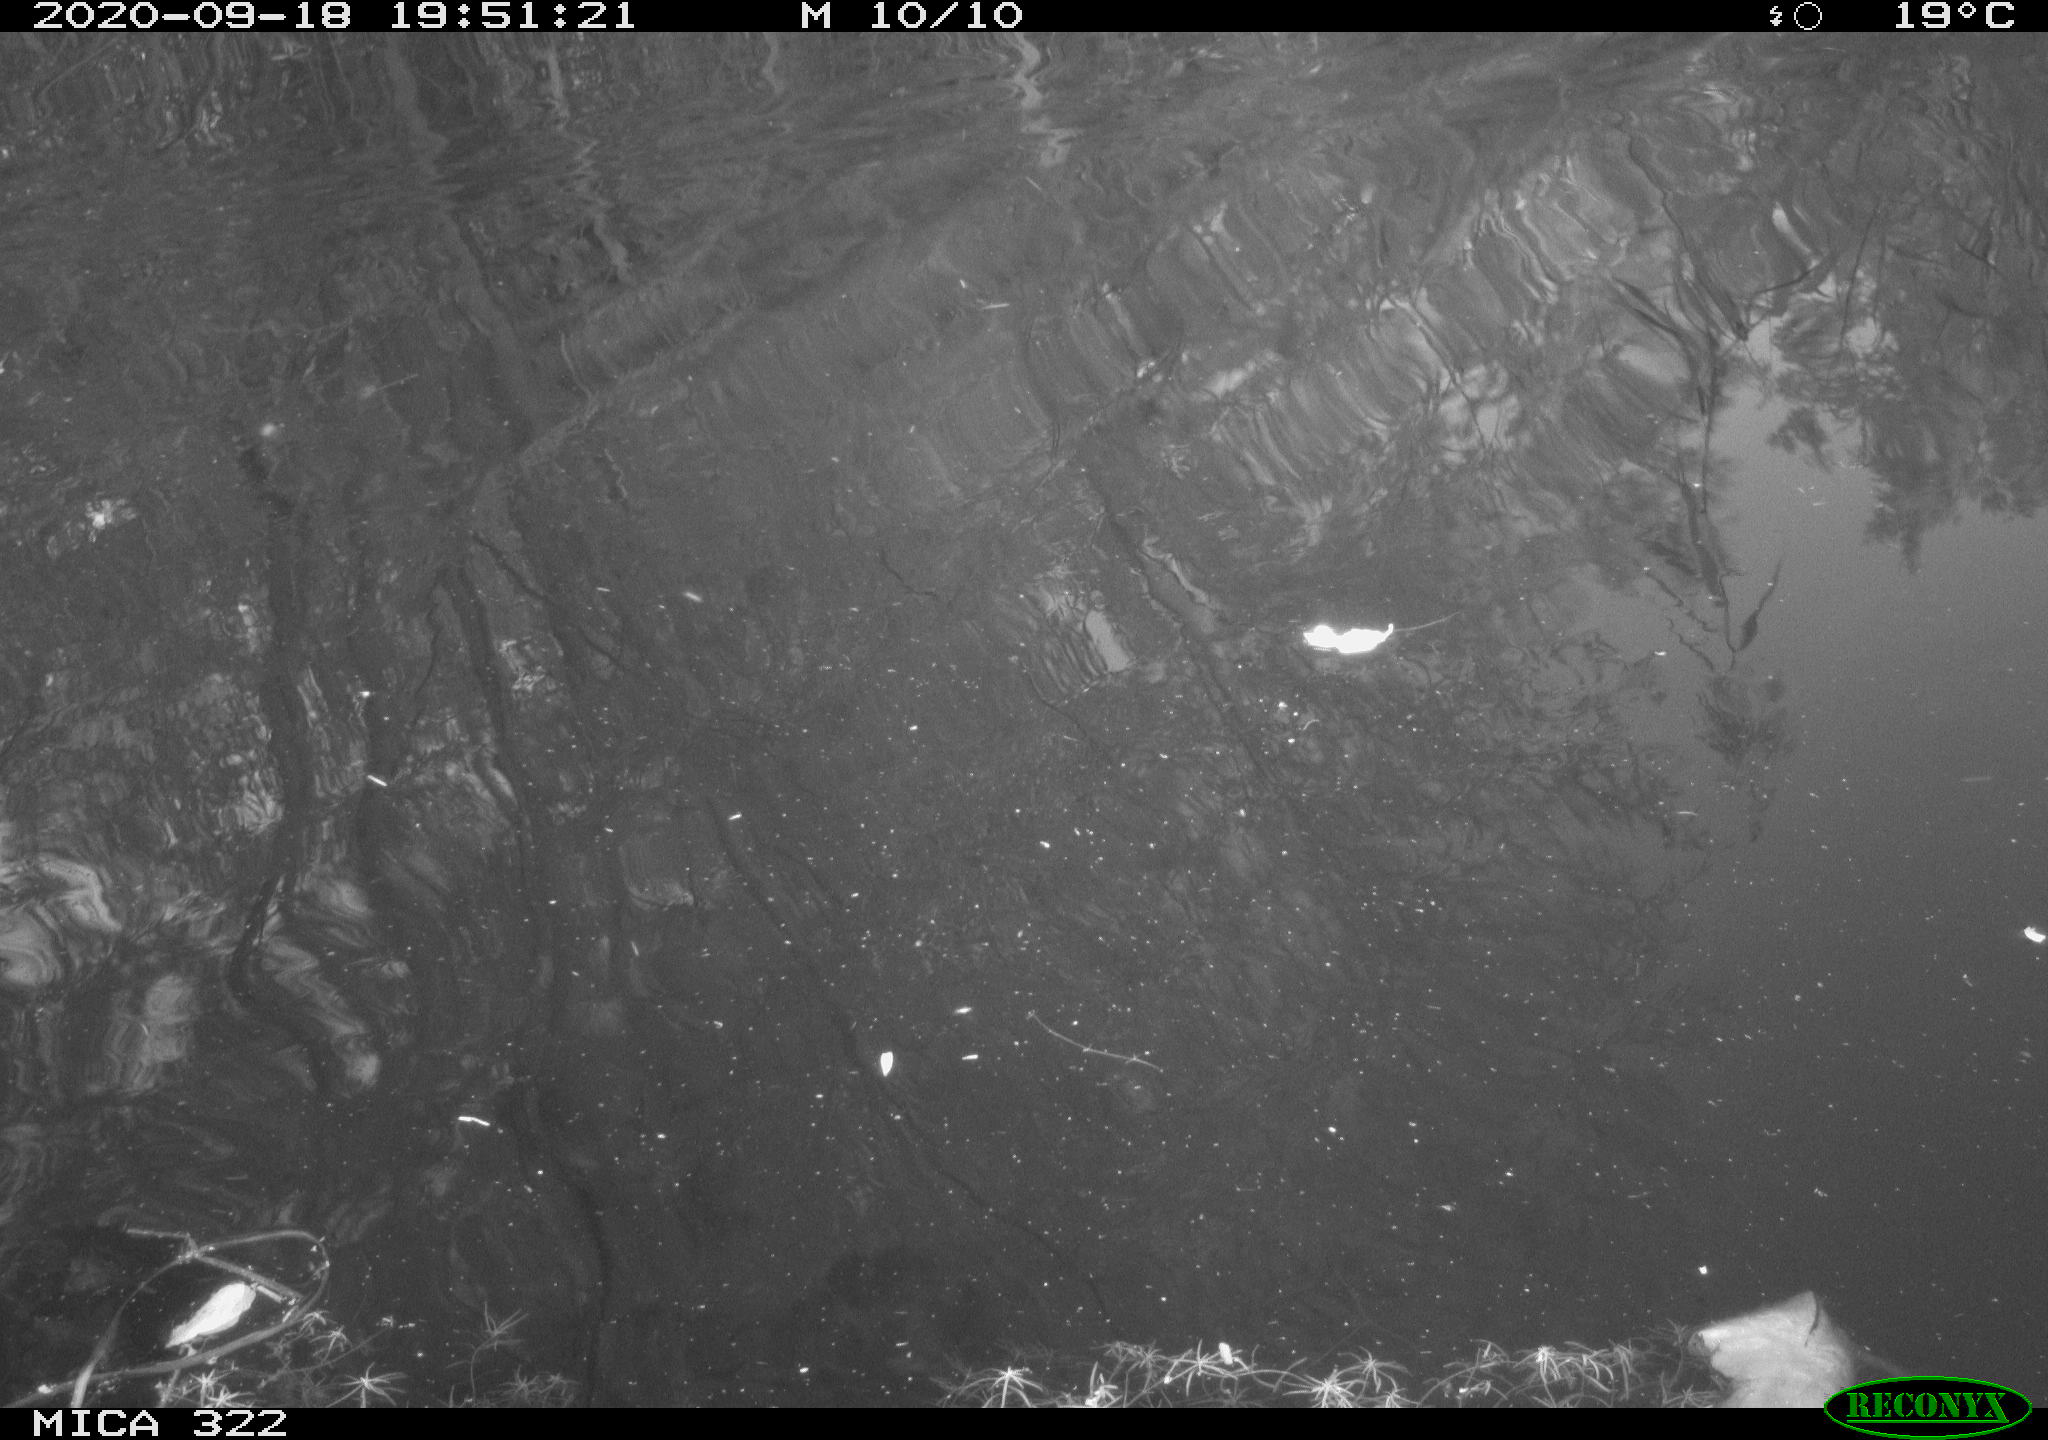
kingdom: Animalia
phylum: Chordata
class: Aves
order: Gruiformes
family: Rallidae
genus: Fulica
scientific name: Fulica atra
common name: Eurasian coot
